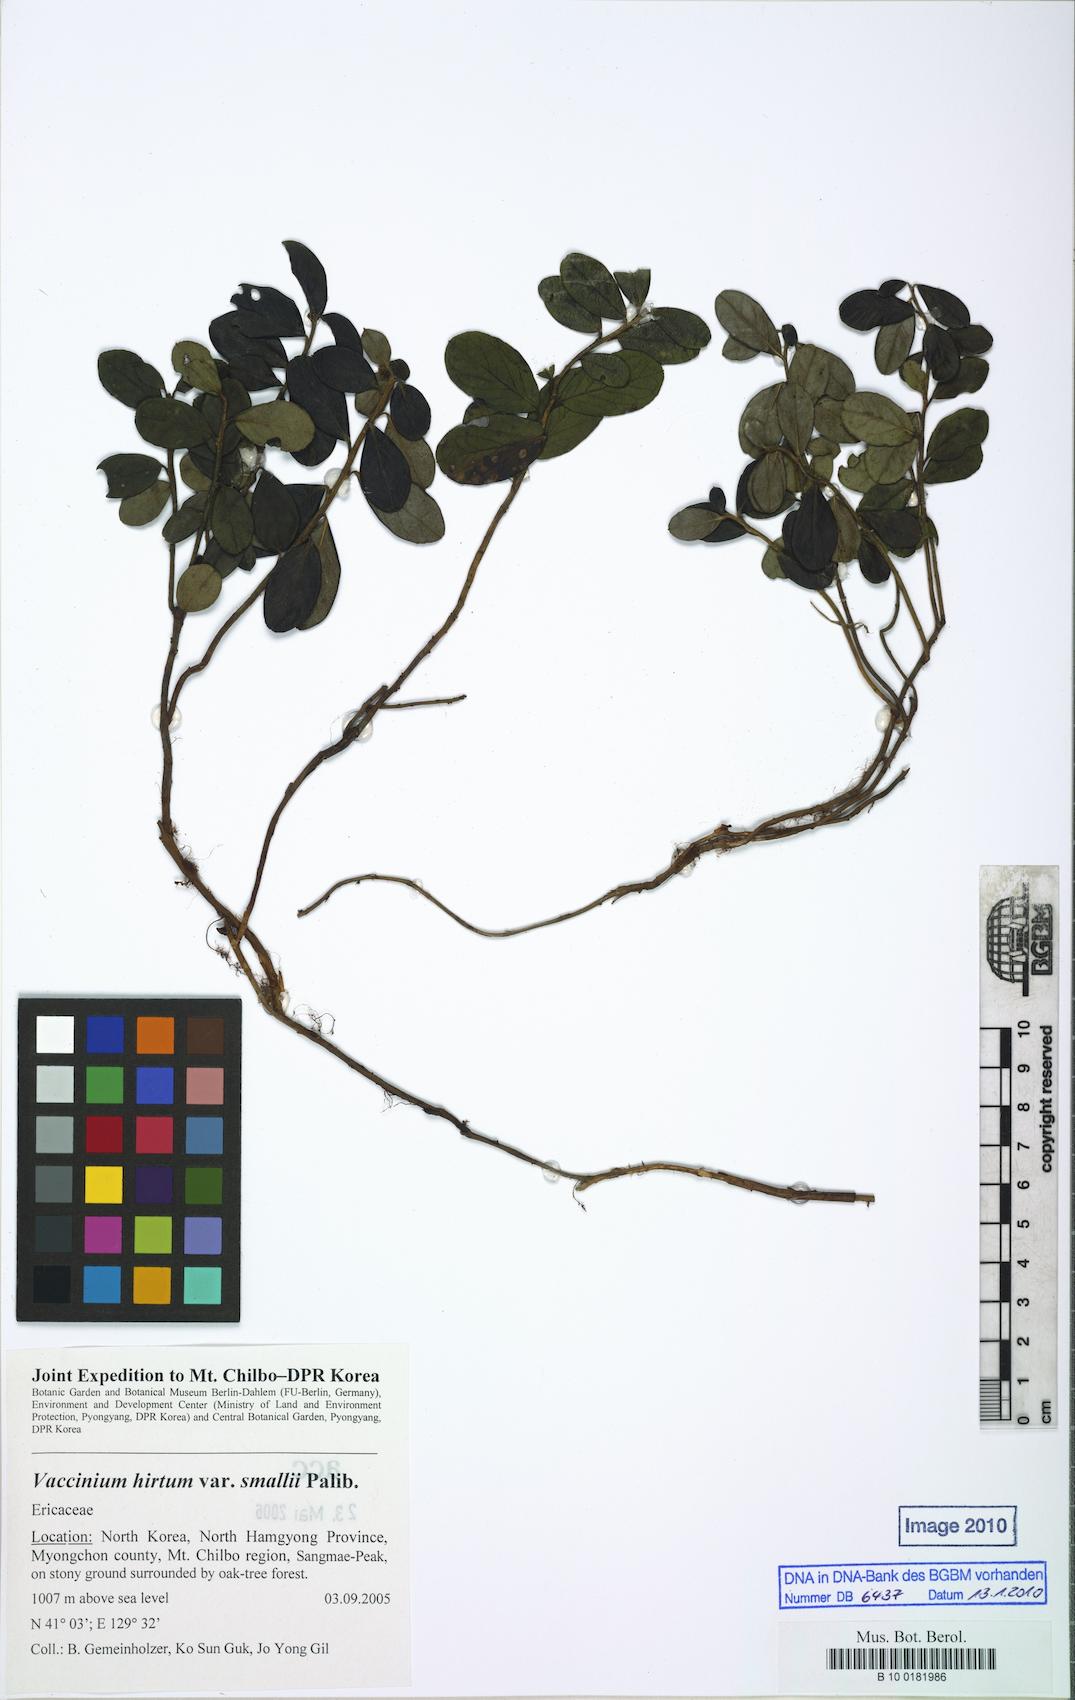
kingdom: Plantae
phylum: Tracheophyta
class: Magnoliopsida
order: Ericales
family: Ericaceae
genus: Vaccinium
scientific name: Vaccinium hirtum
